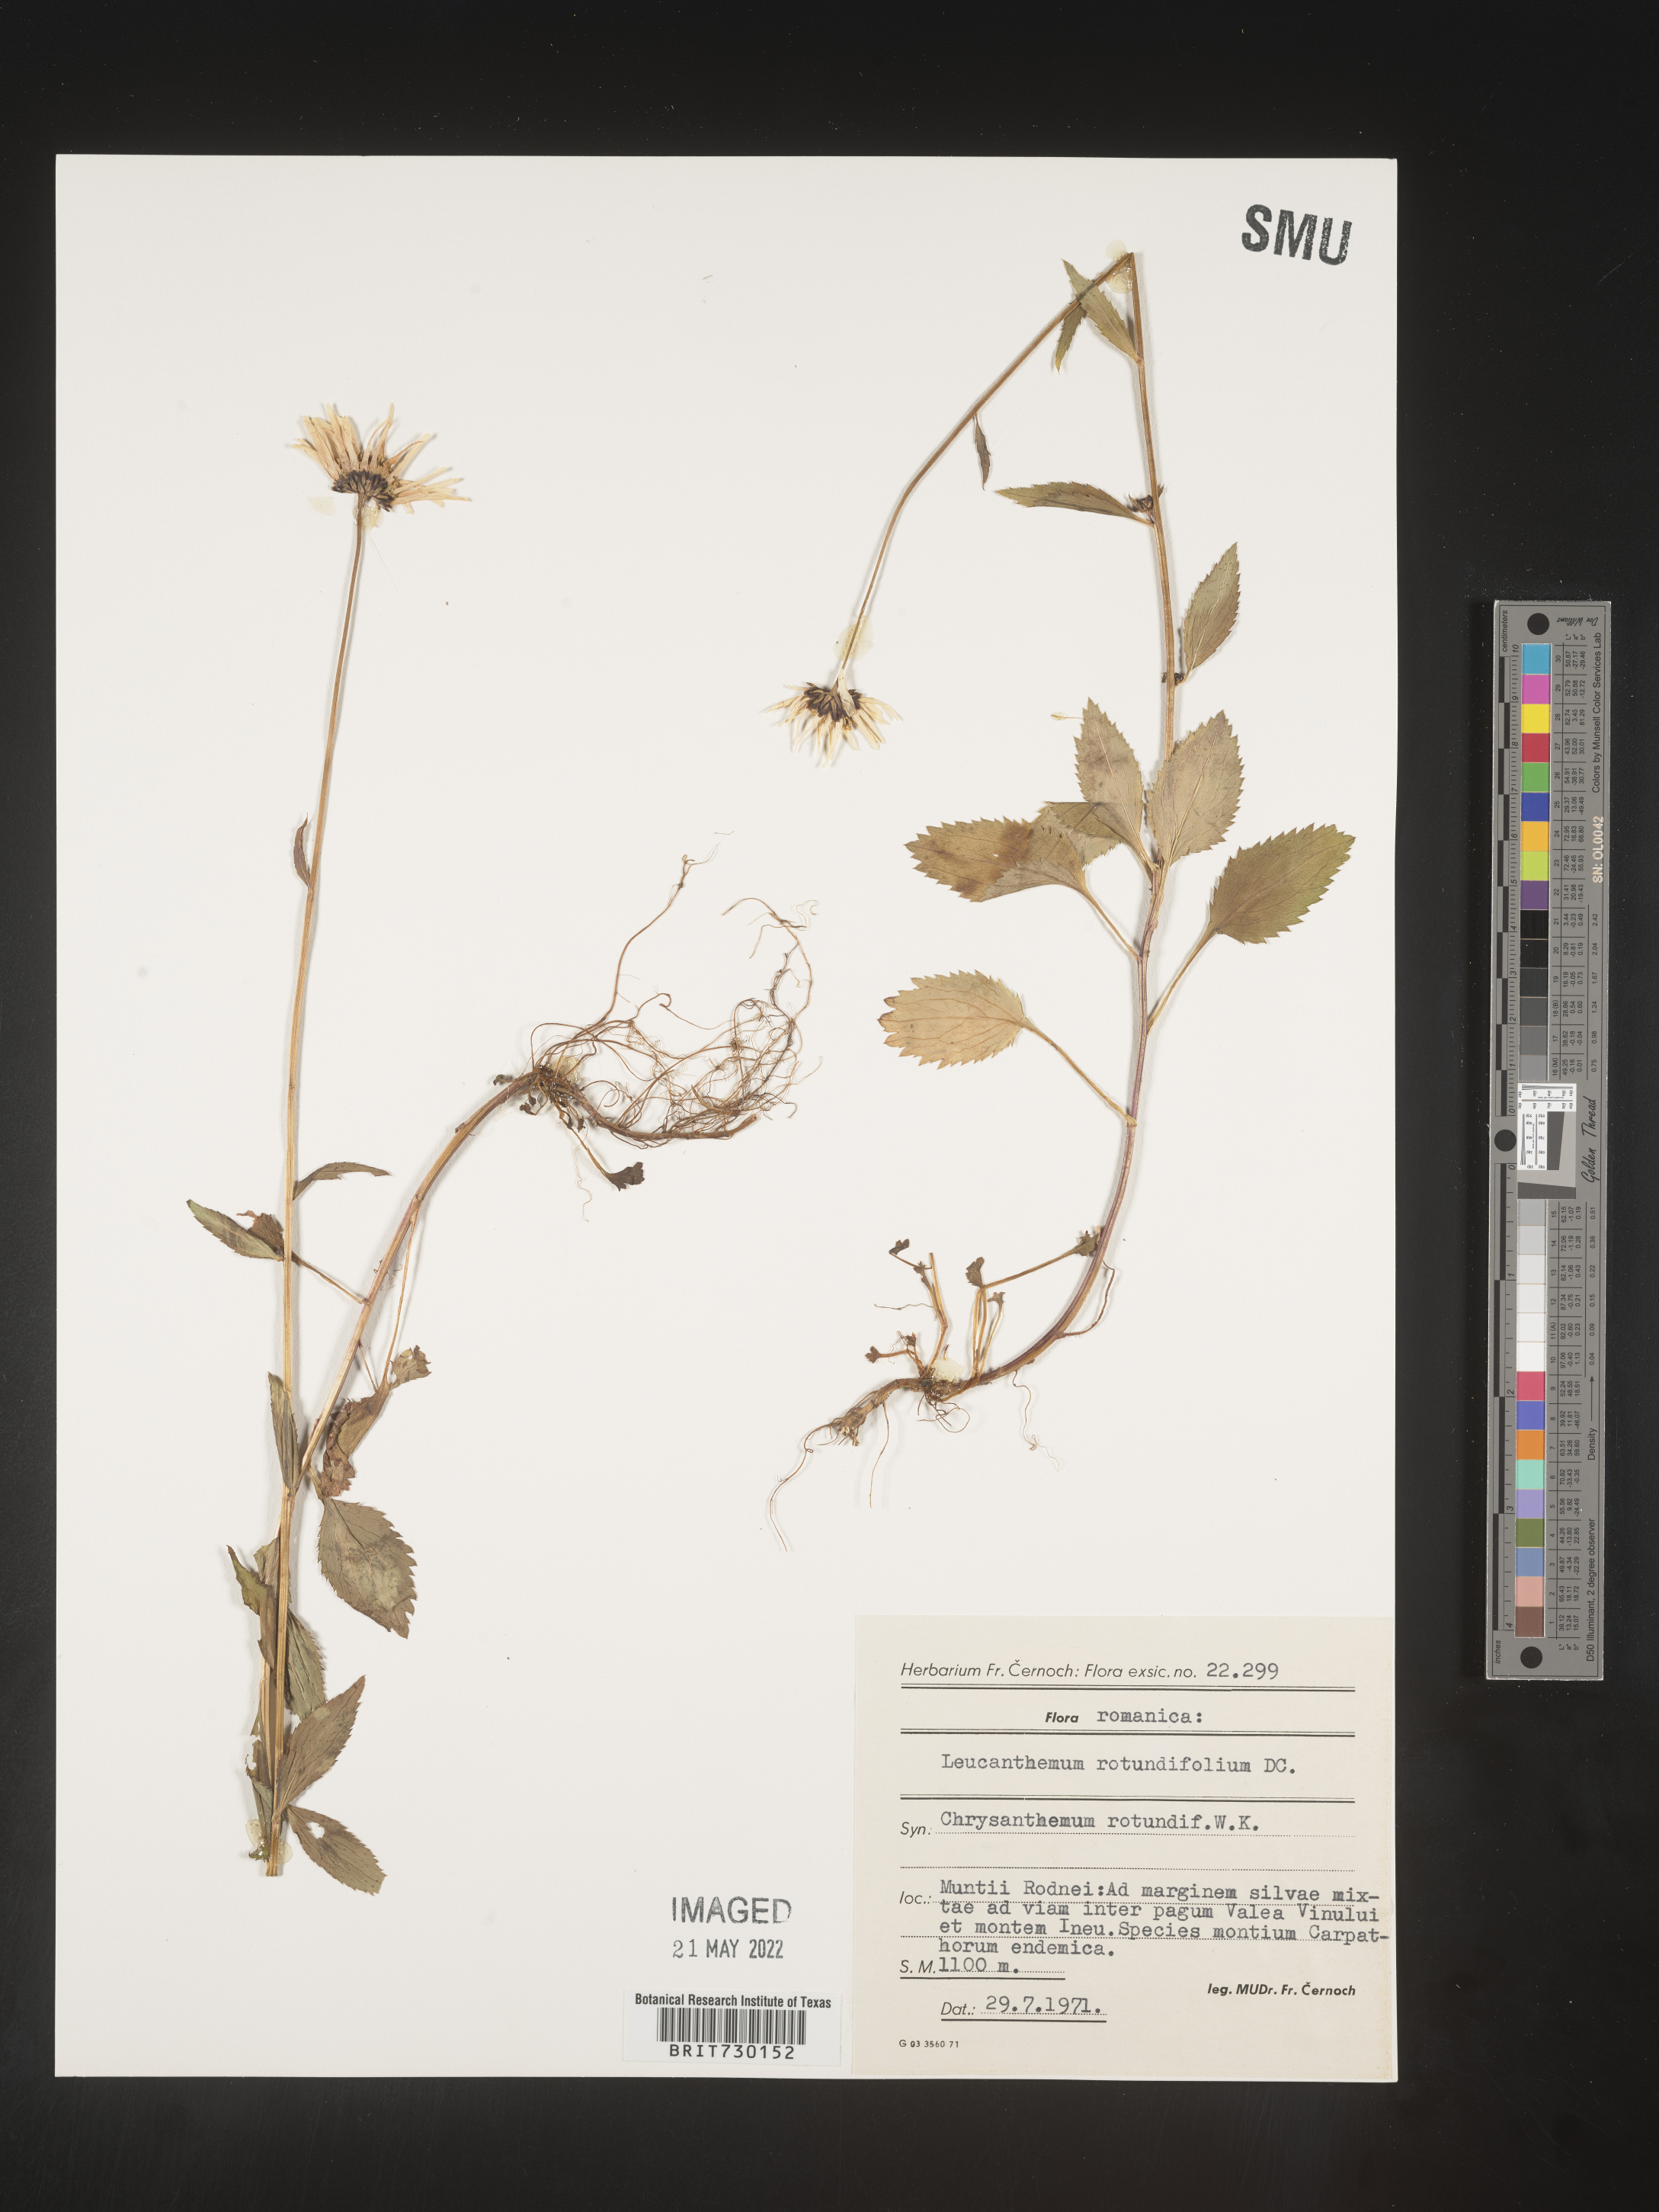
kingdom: Plantae
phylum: Tracheophyta
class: Magnoliopsida
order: Asterales
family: Asteraceae
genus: Leucanthemum
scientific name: Leucanthemum
